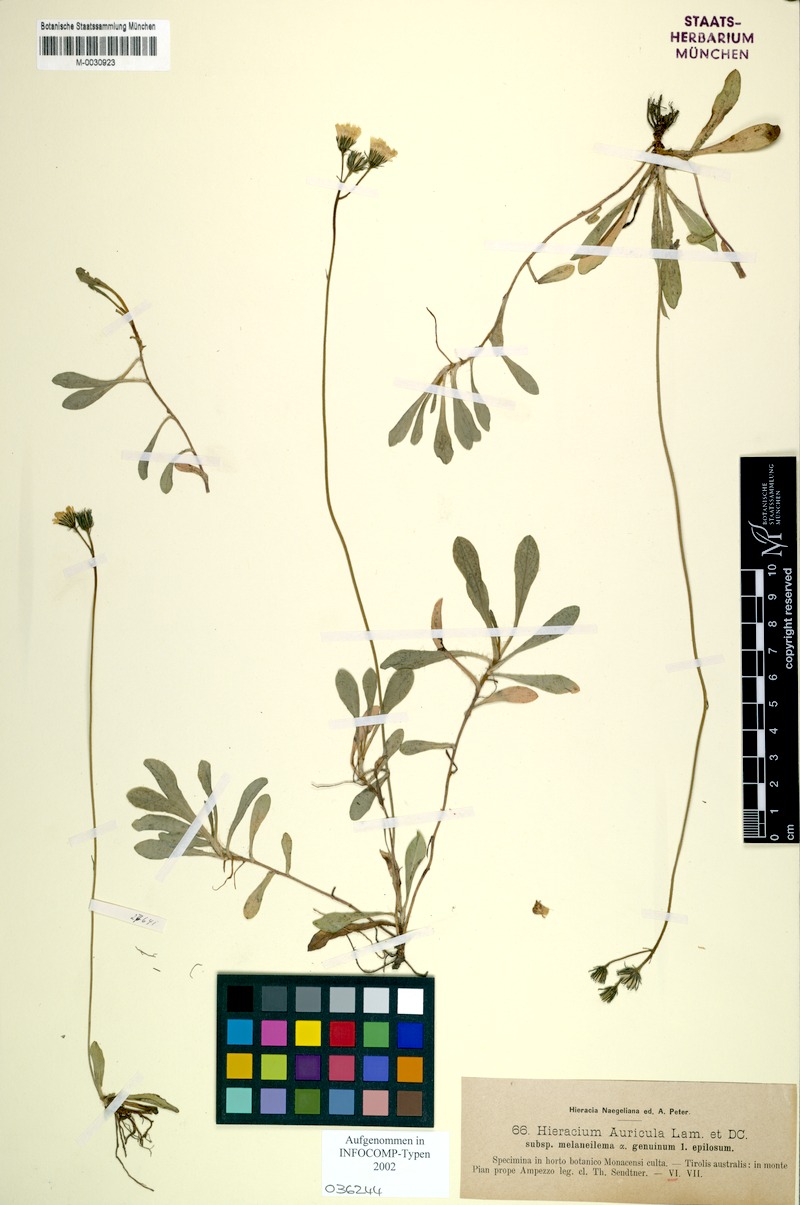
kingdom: Plantae
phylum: Tracheophyta
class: Magnoliopsida
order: Asterales
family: Asteraceae
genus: Pilosella
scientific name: Pilosella lactucella
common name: Glaucous fox-and-cubs
